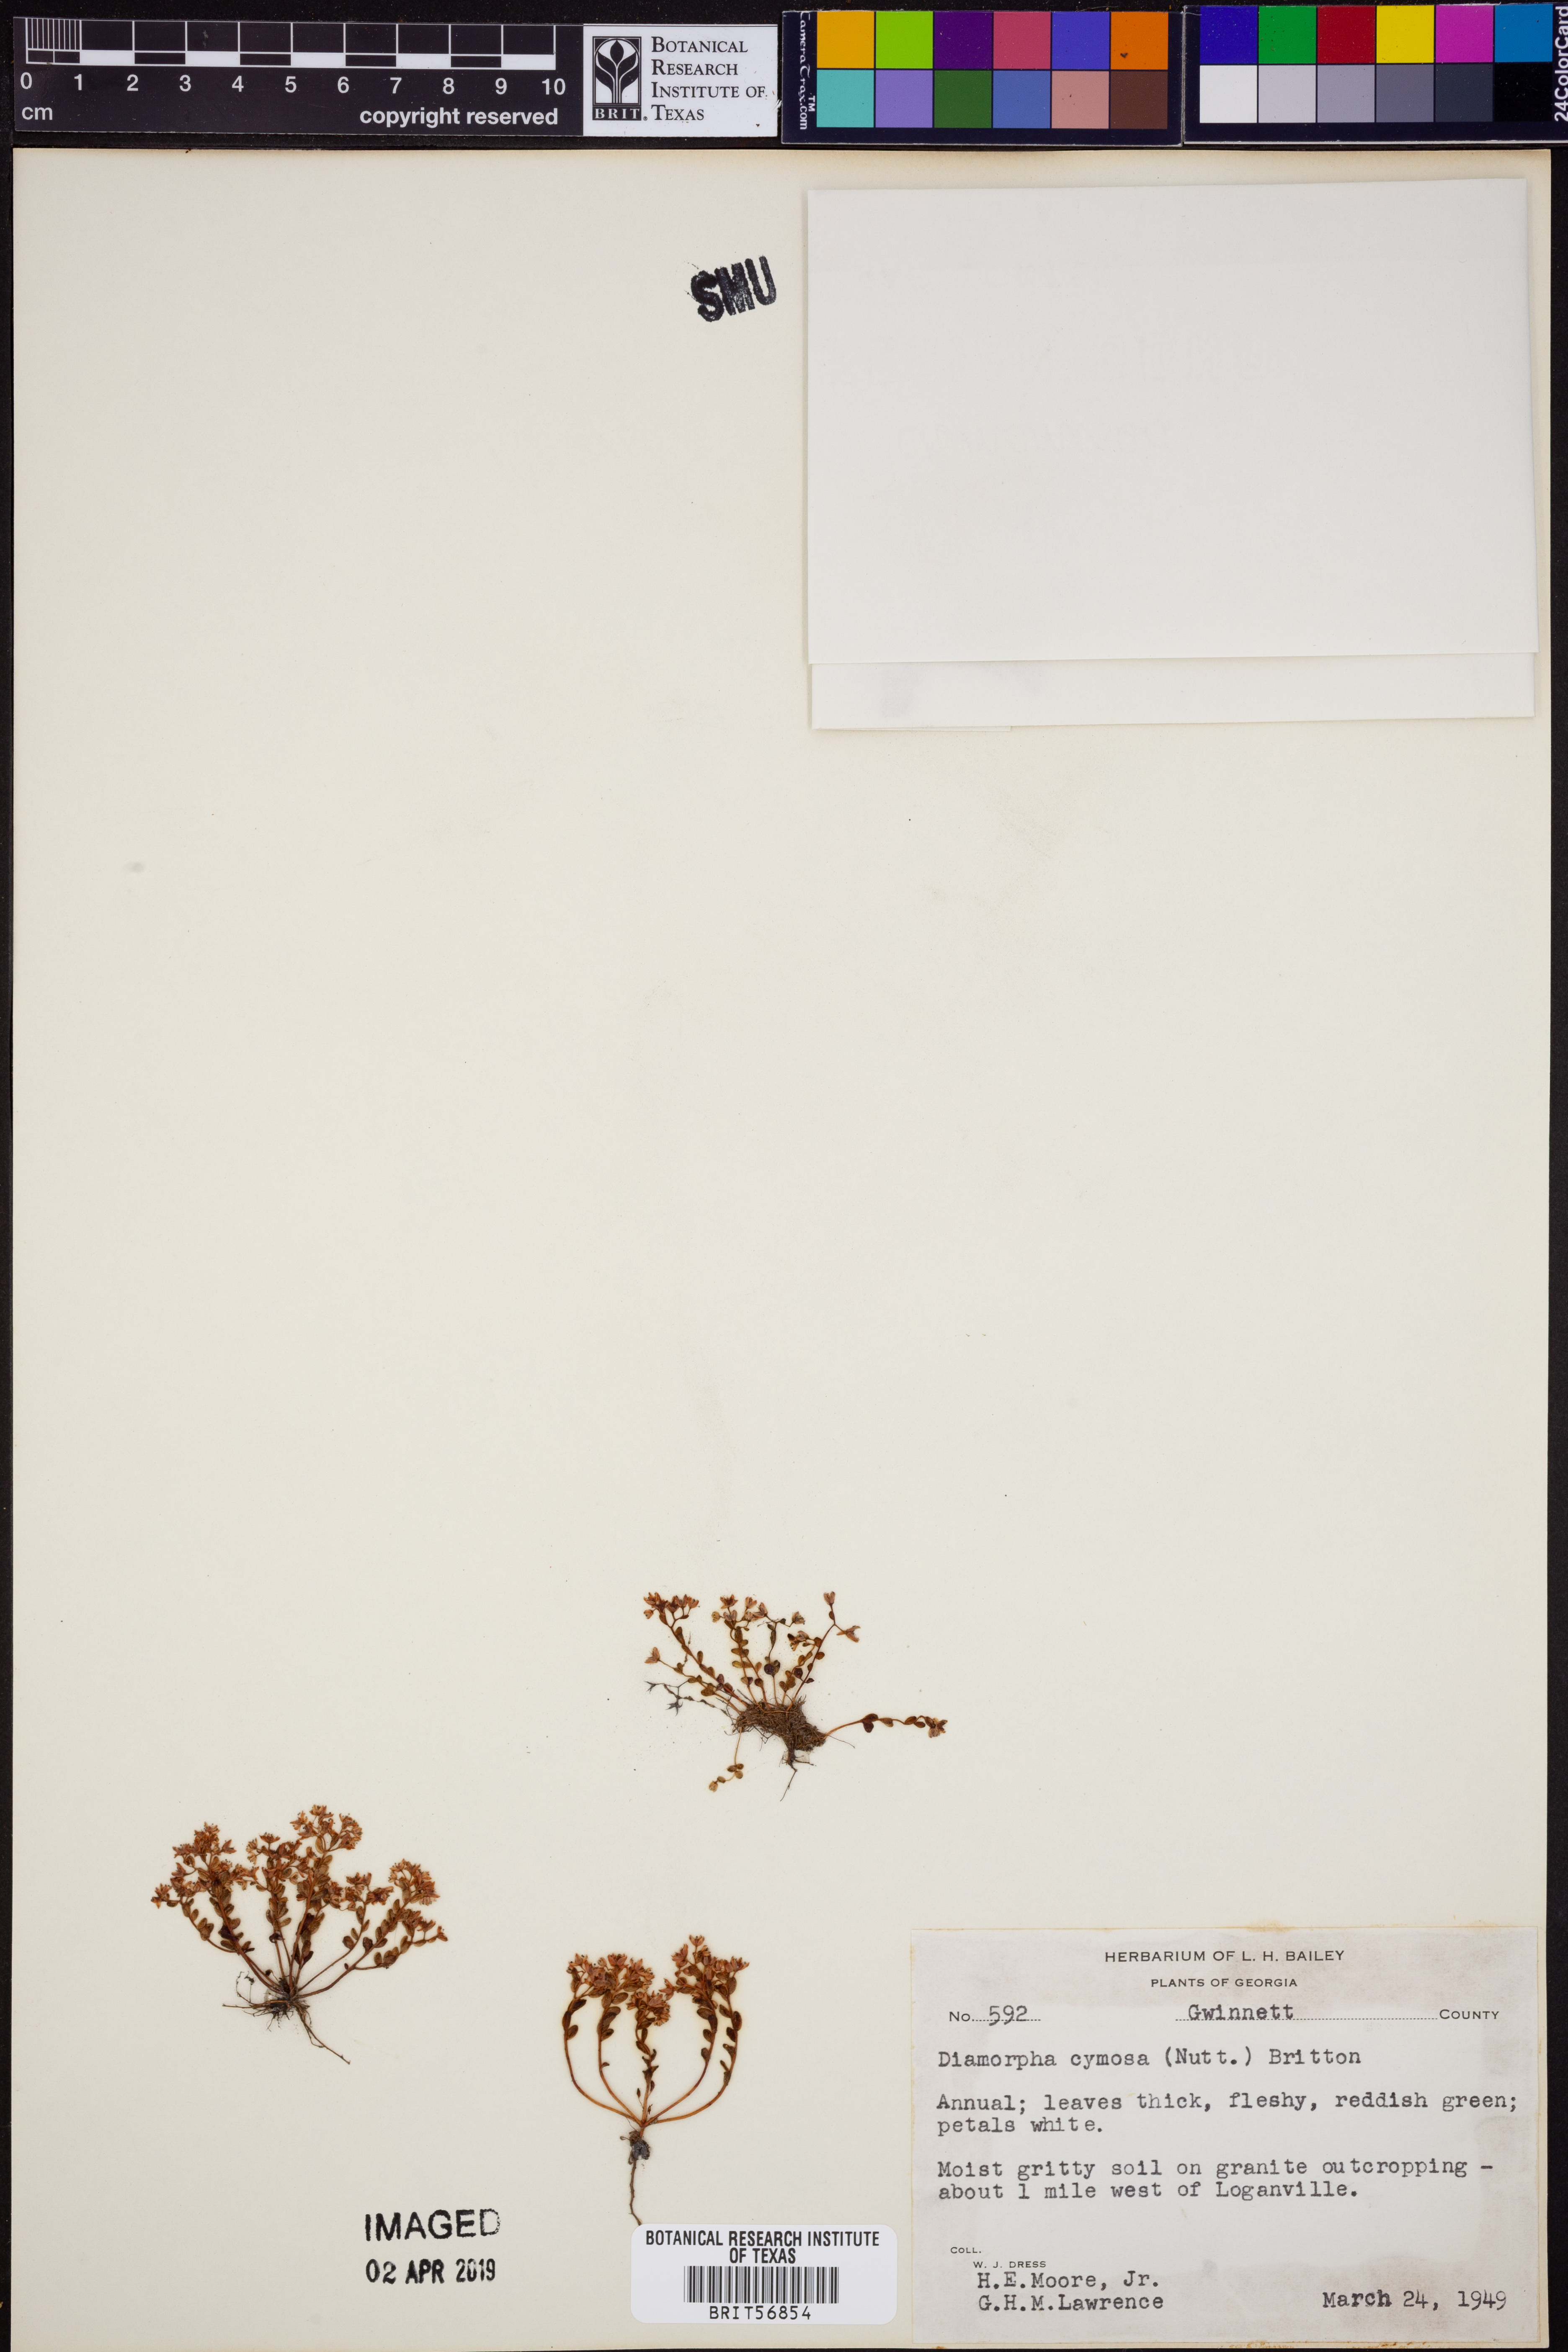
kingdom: Plantae
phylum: Tracheophyta
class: Magnoliopsida
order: Saxifragales
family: Crassulaceae
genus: Sedum
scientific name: Sedum smallii
